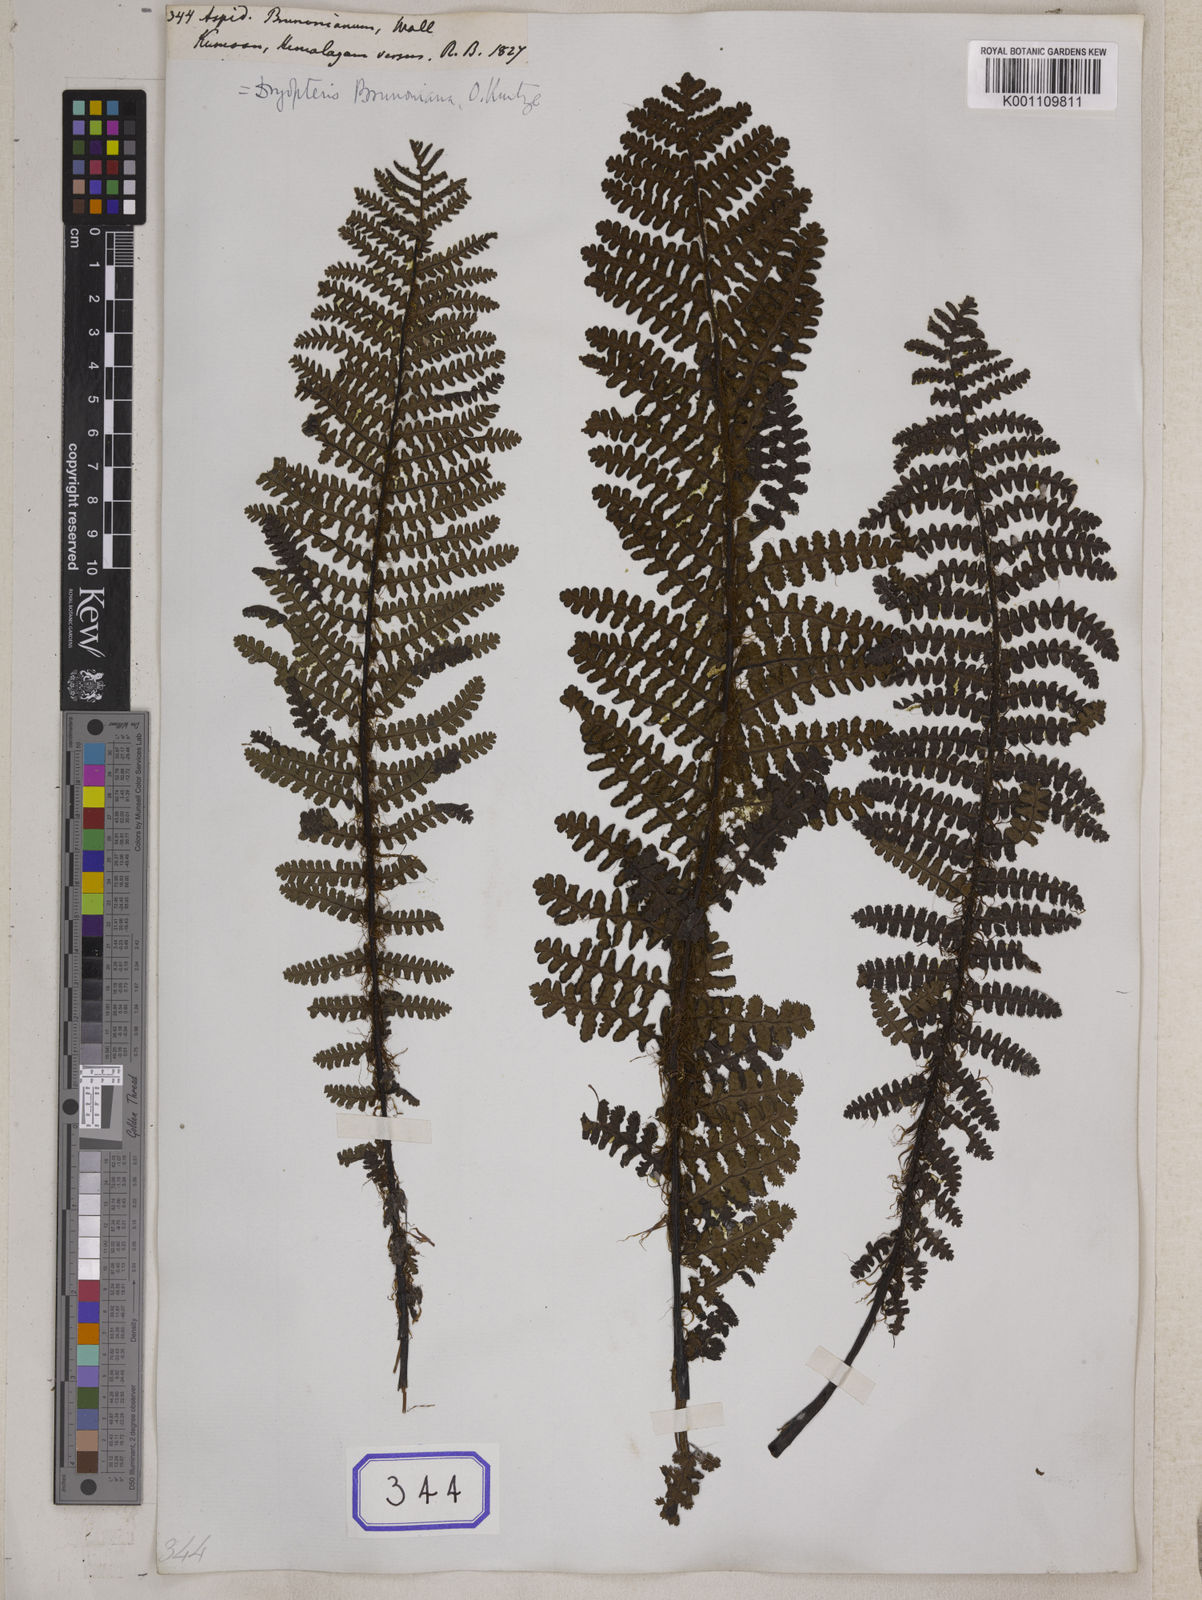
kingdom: Plantae
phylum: Tracheophyta
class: Polypodiopsida
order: Polypodiales
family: Athyriaceae
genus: Athyrium
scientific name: Athyrium wallichianum
